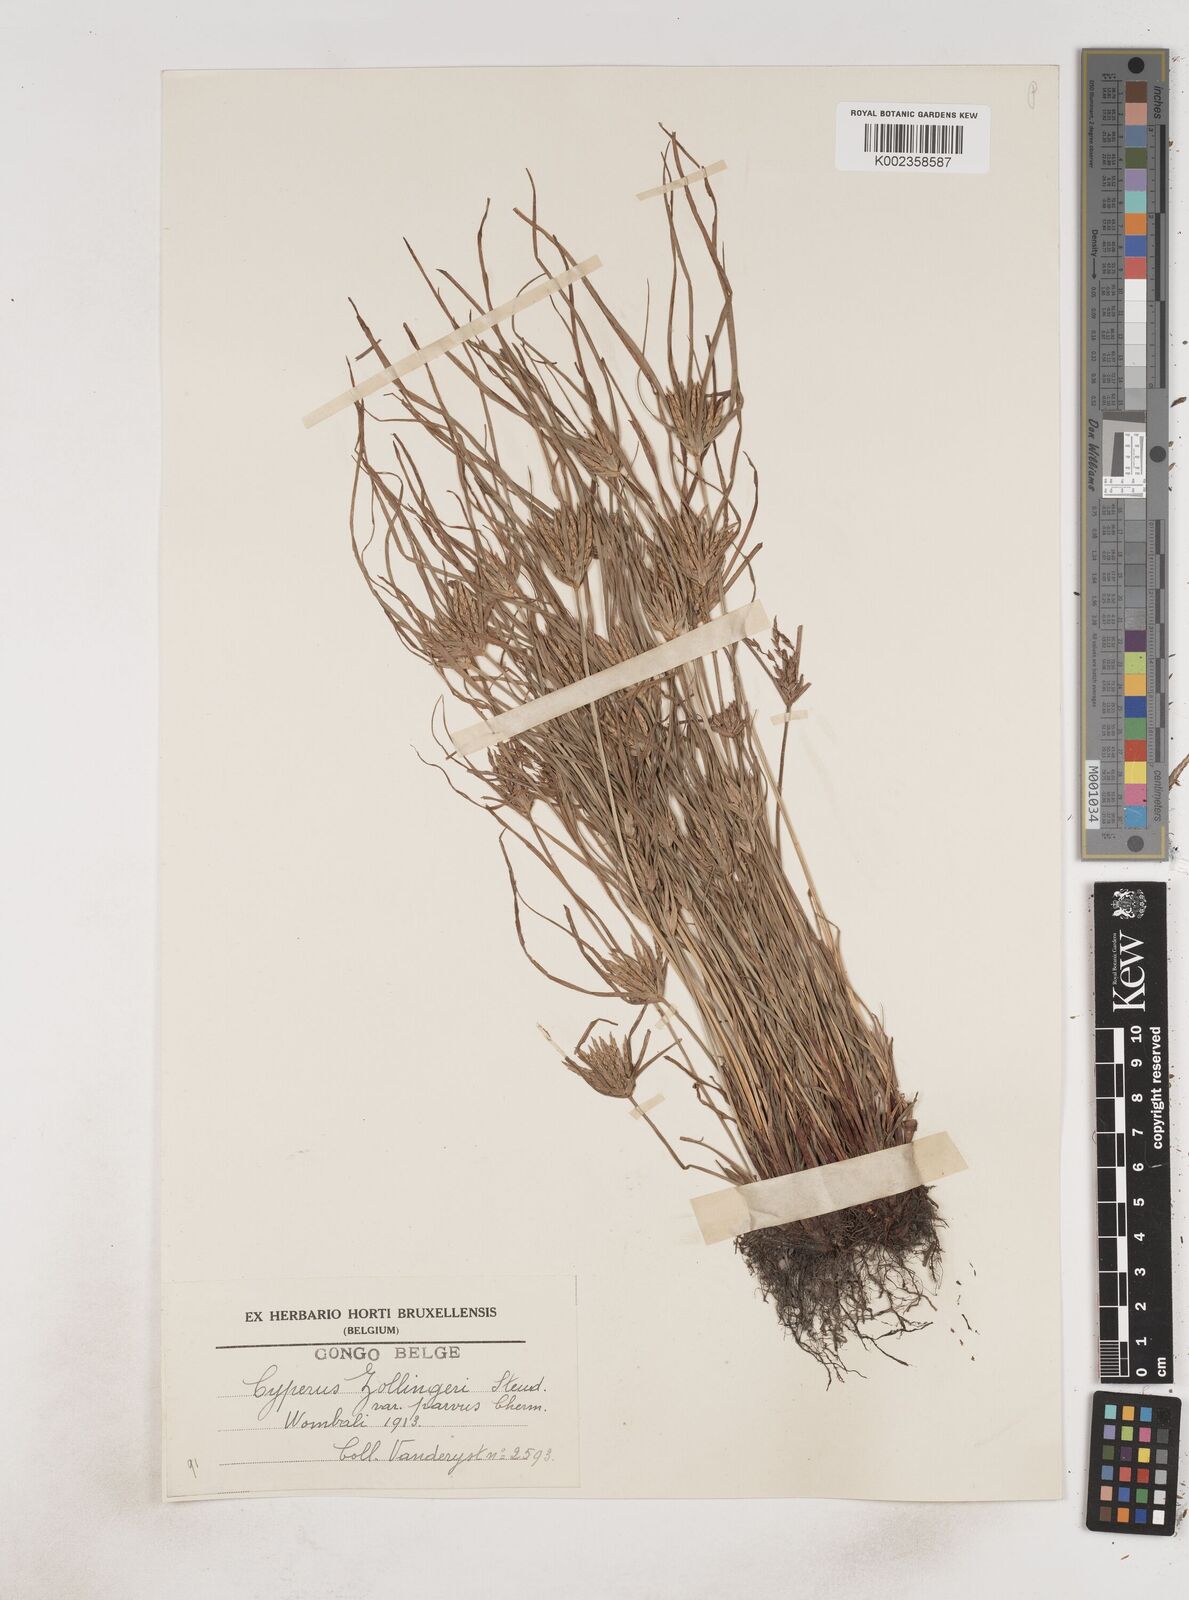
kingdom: Plantae
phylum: Tracheophyta
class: Liliopsida
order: Poales
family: Cyperaceae
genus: Cyperus
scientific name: Cyperus zollingeri
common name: Roadside flatsedge
